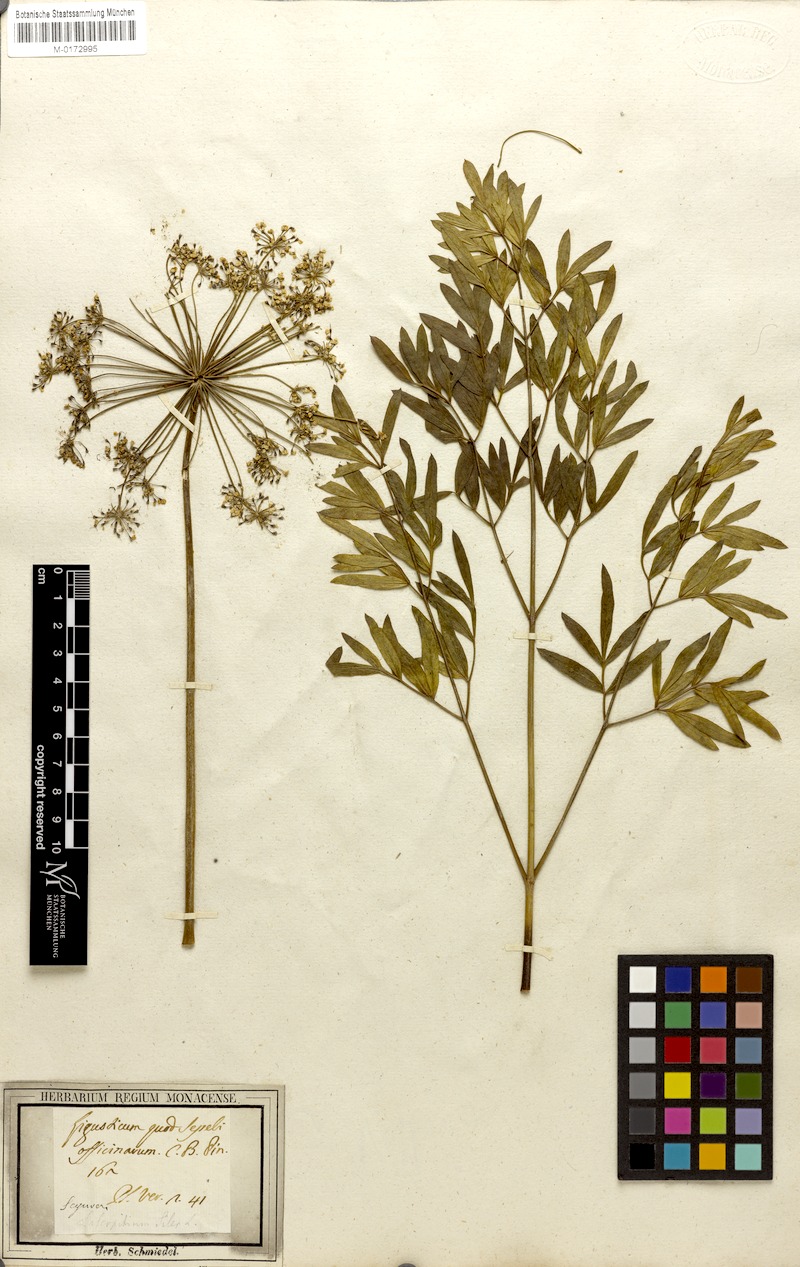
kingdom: Plantae
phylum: Tracheophyta
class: Magnoliopsida
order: Apiales
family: Apiaceae
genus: Siler
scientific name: Siler montanum
